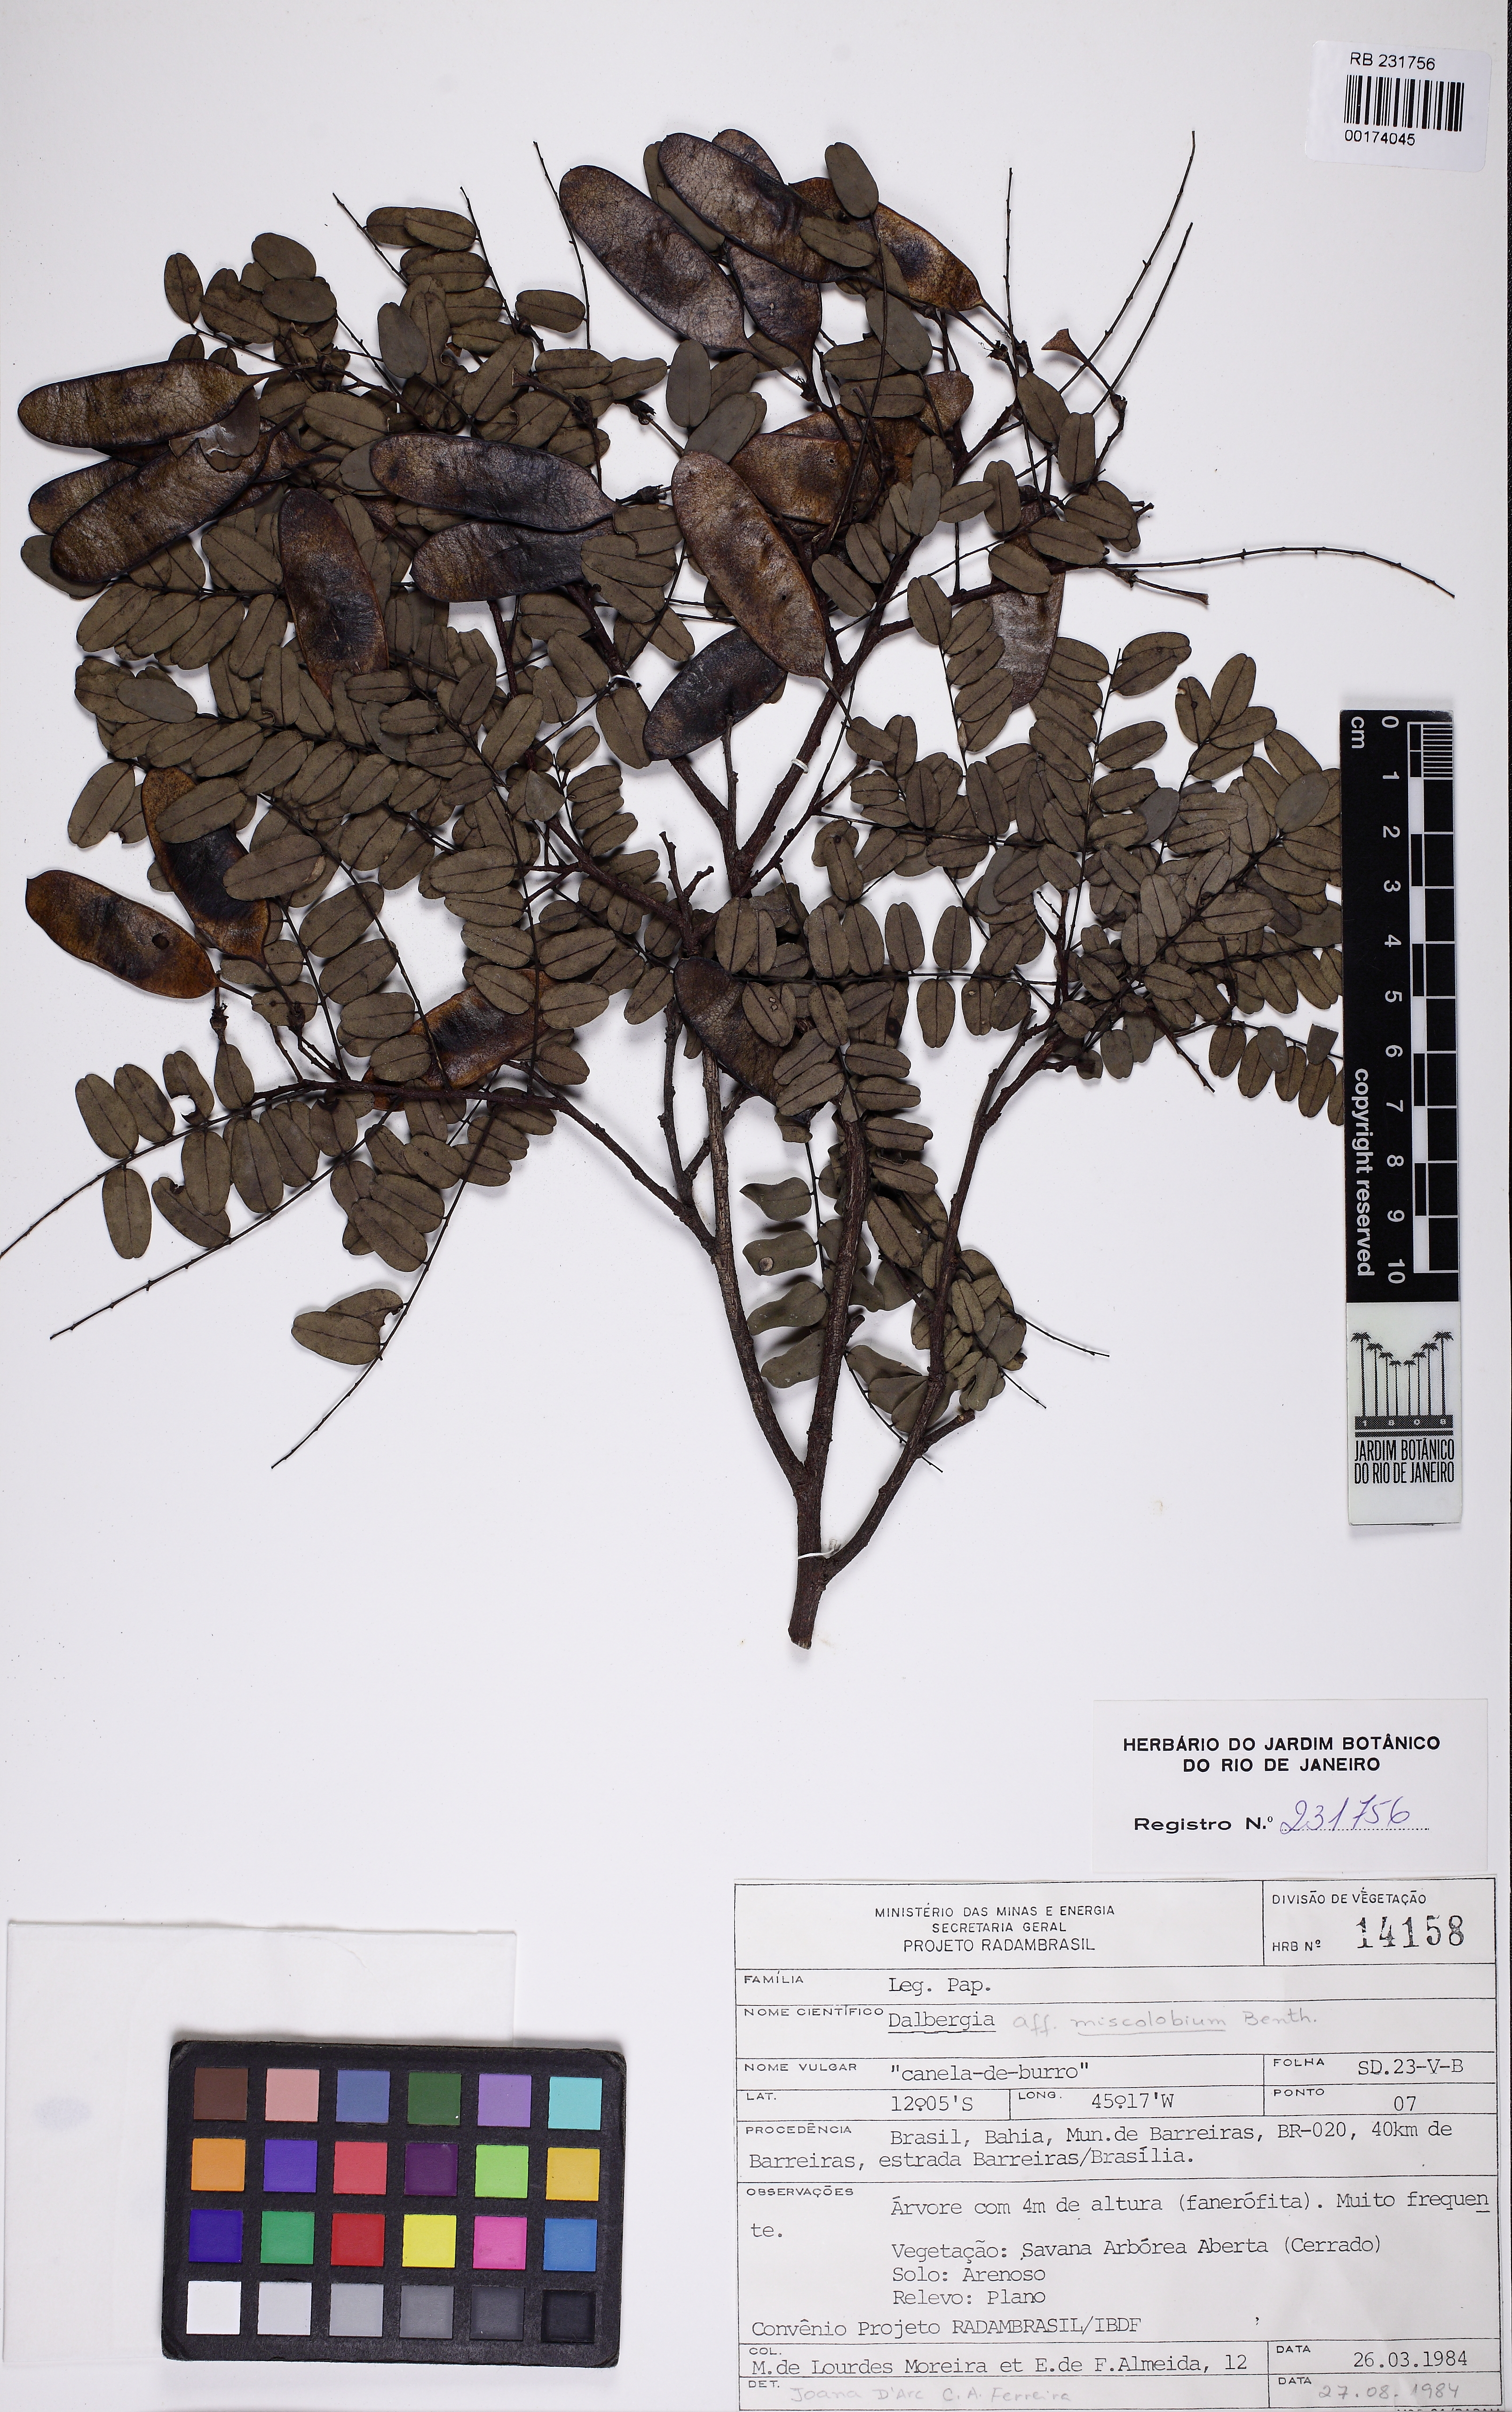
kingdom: Plantae
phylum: Tracheophyta
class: Magnoliopsida
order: Fabales
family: Fabaceae
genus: Dalbergia
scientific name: Dalbergia miscolobium
